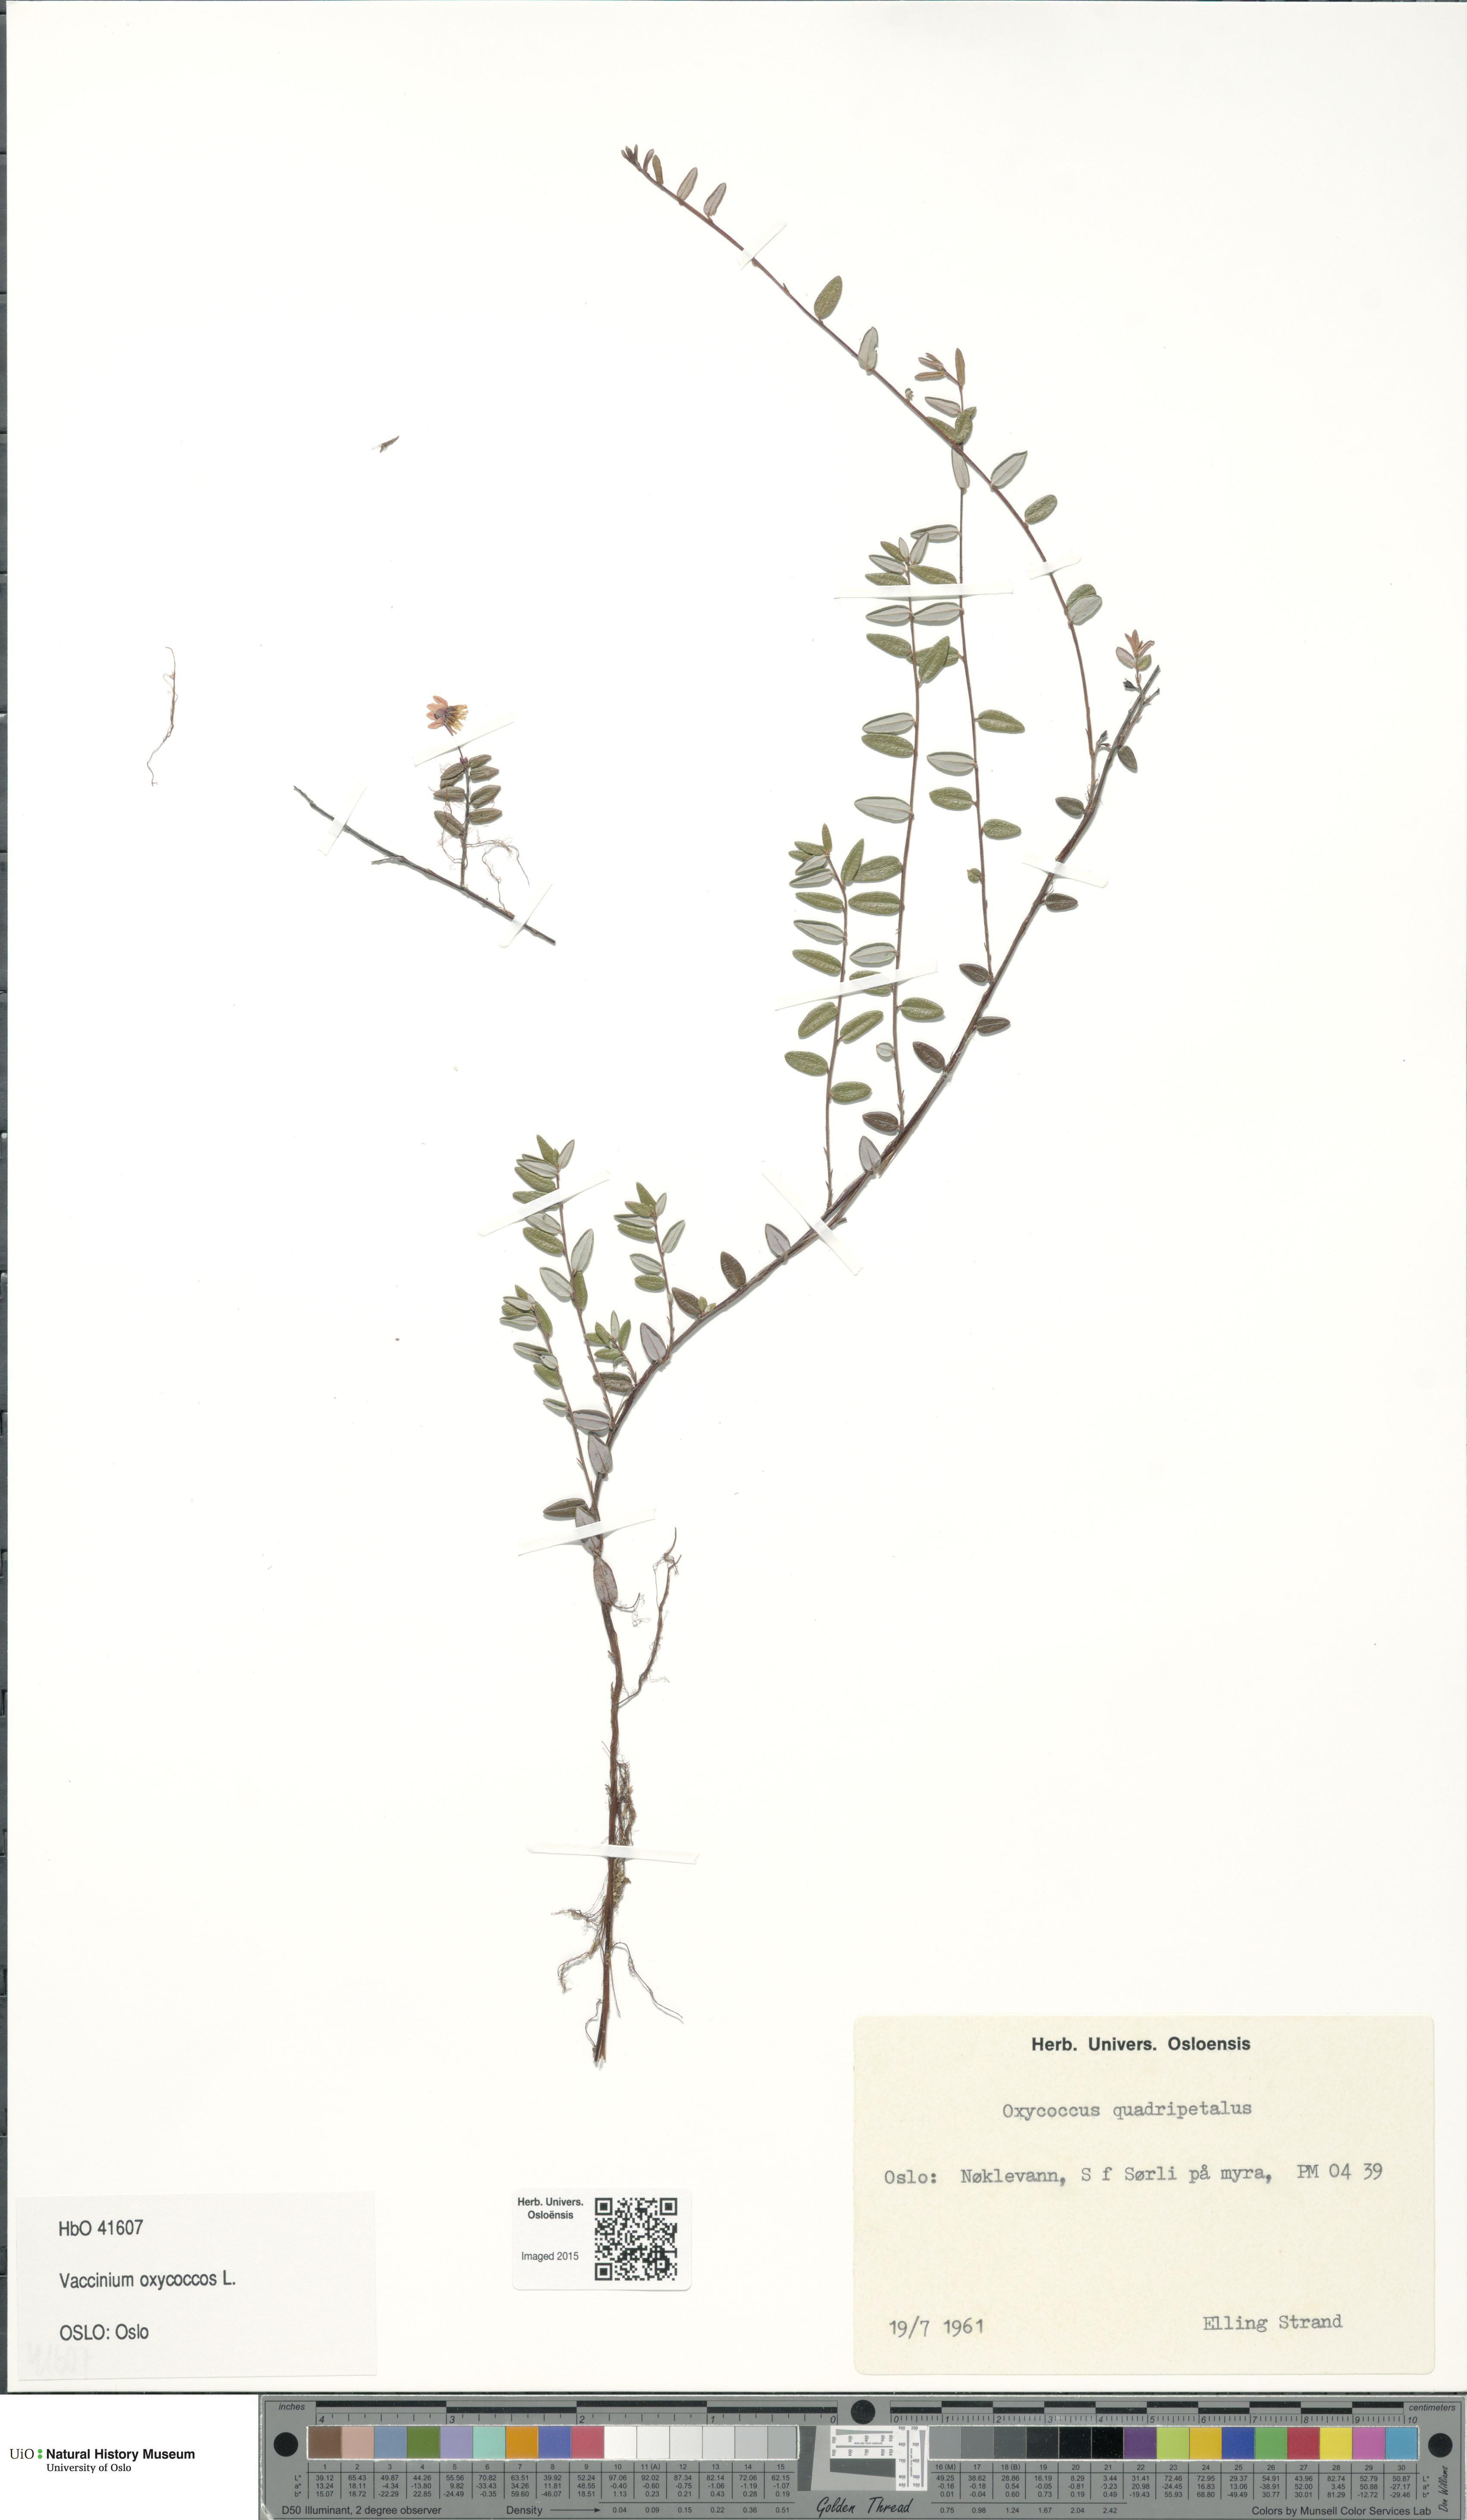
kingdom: Plantae
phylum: Tracheophyta
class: Magnoliopsida
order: Ericales
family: Ericaceae
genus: Vaccinium
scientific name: Vaccinium oxycoccos
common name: Cranberry
